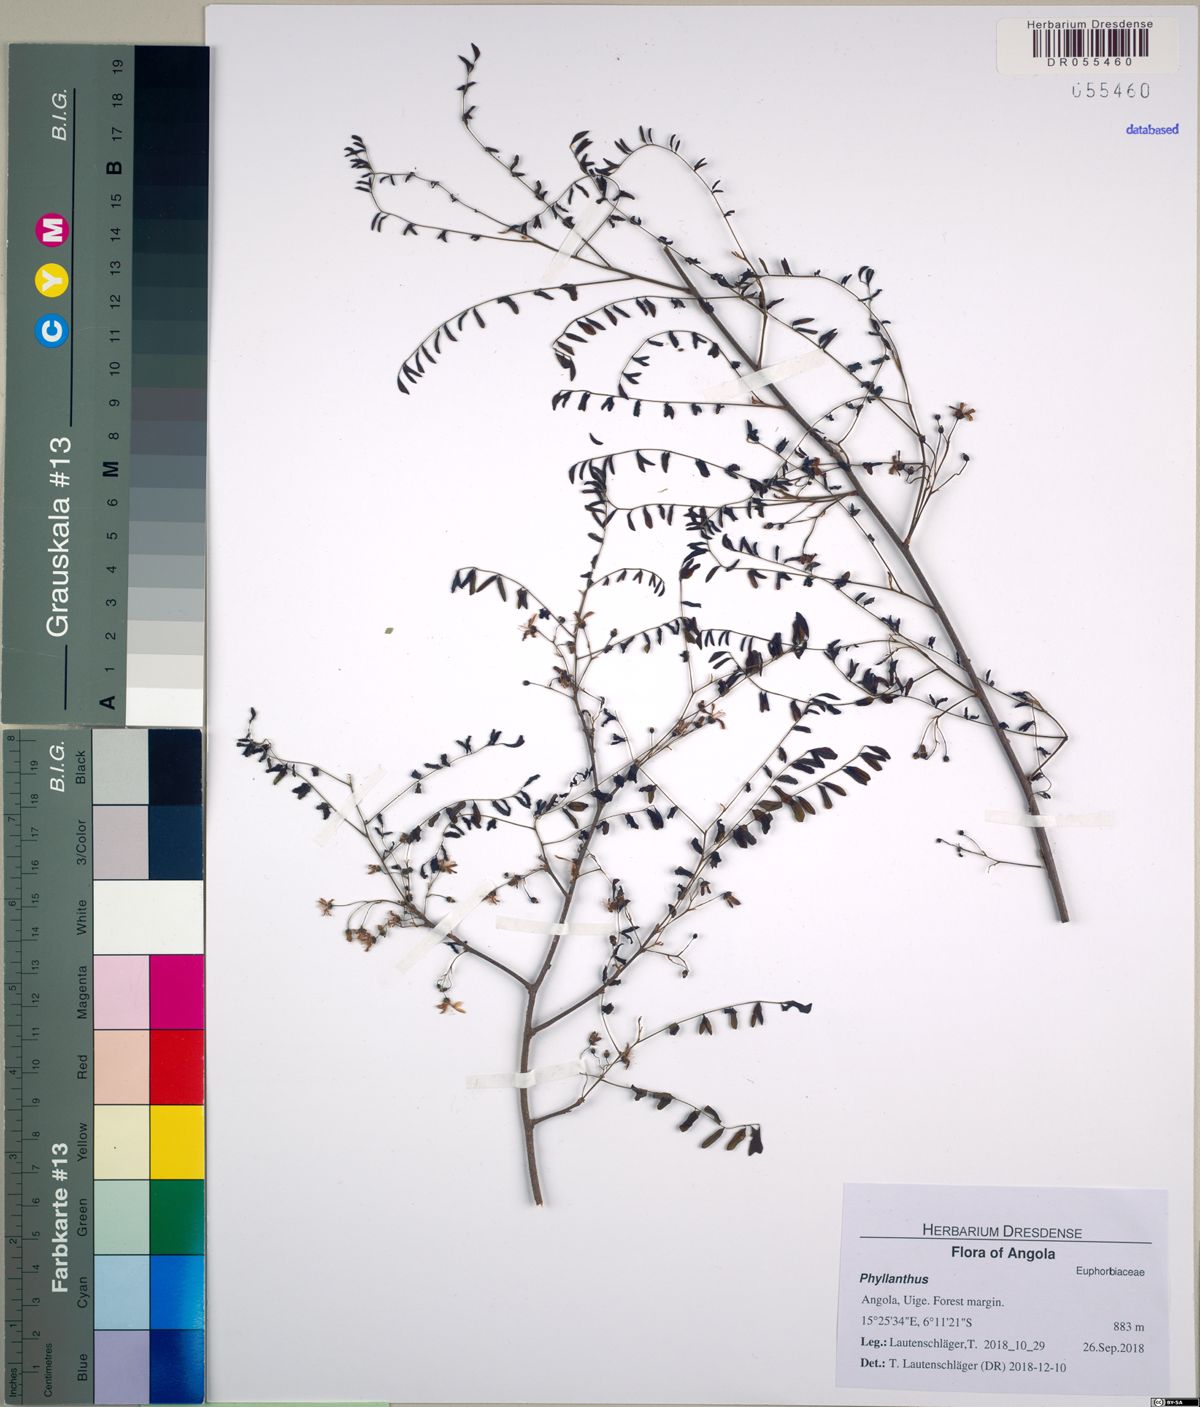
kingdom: Plantae
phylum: Tracheophyta
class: Magnoliopsida
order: Malpighiales
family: Phyllanthaceae
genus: Phyllanthus
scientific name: Phyllanthus
